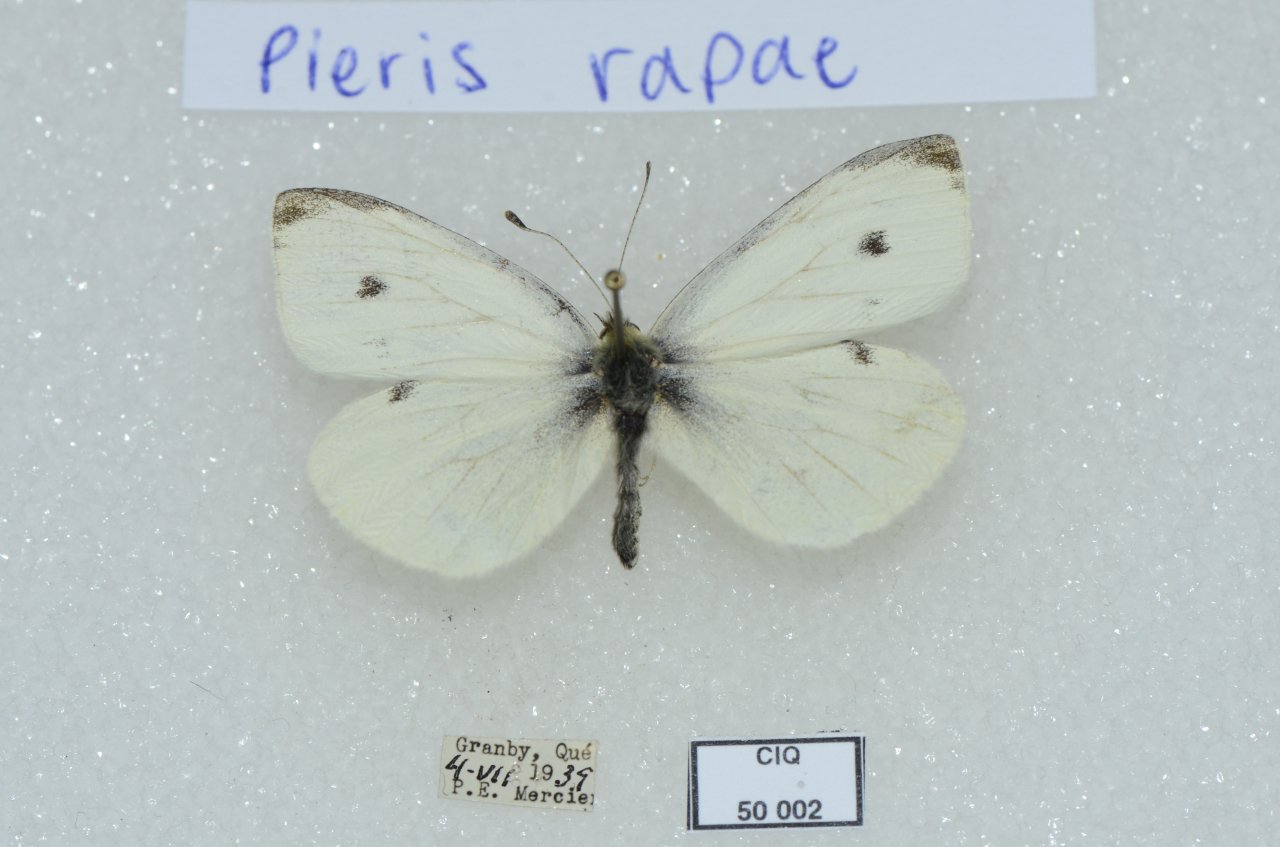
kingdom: Animalia
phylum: Arthropoda
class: Insecta
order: Lepidoptera
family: Pieridae
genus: Pieris
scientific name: Pieris rapae
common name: Cabbage White
